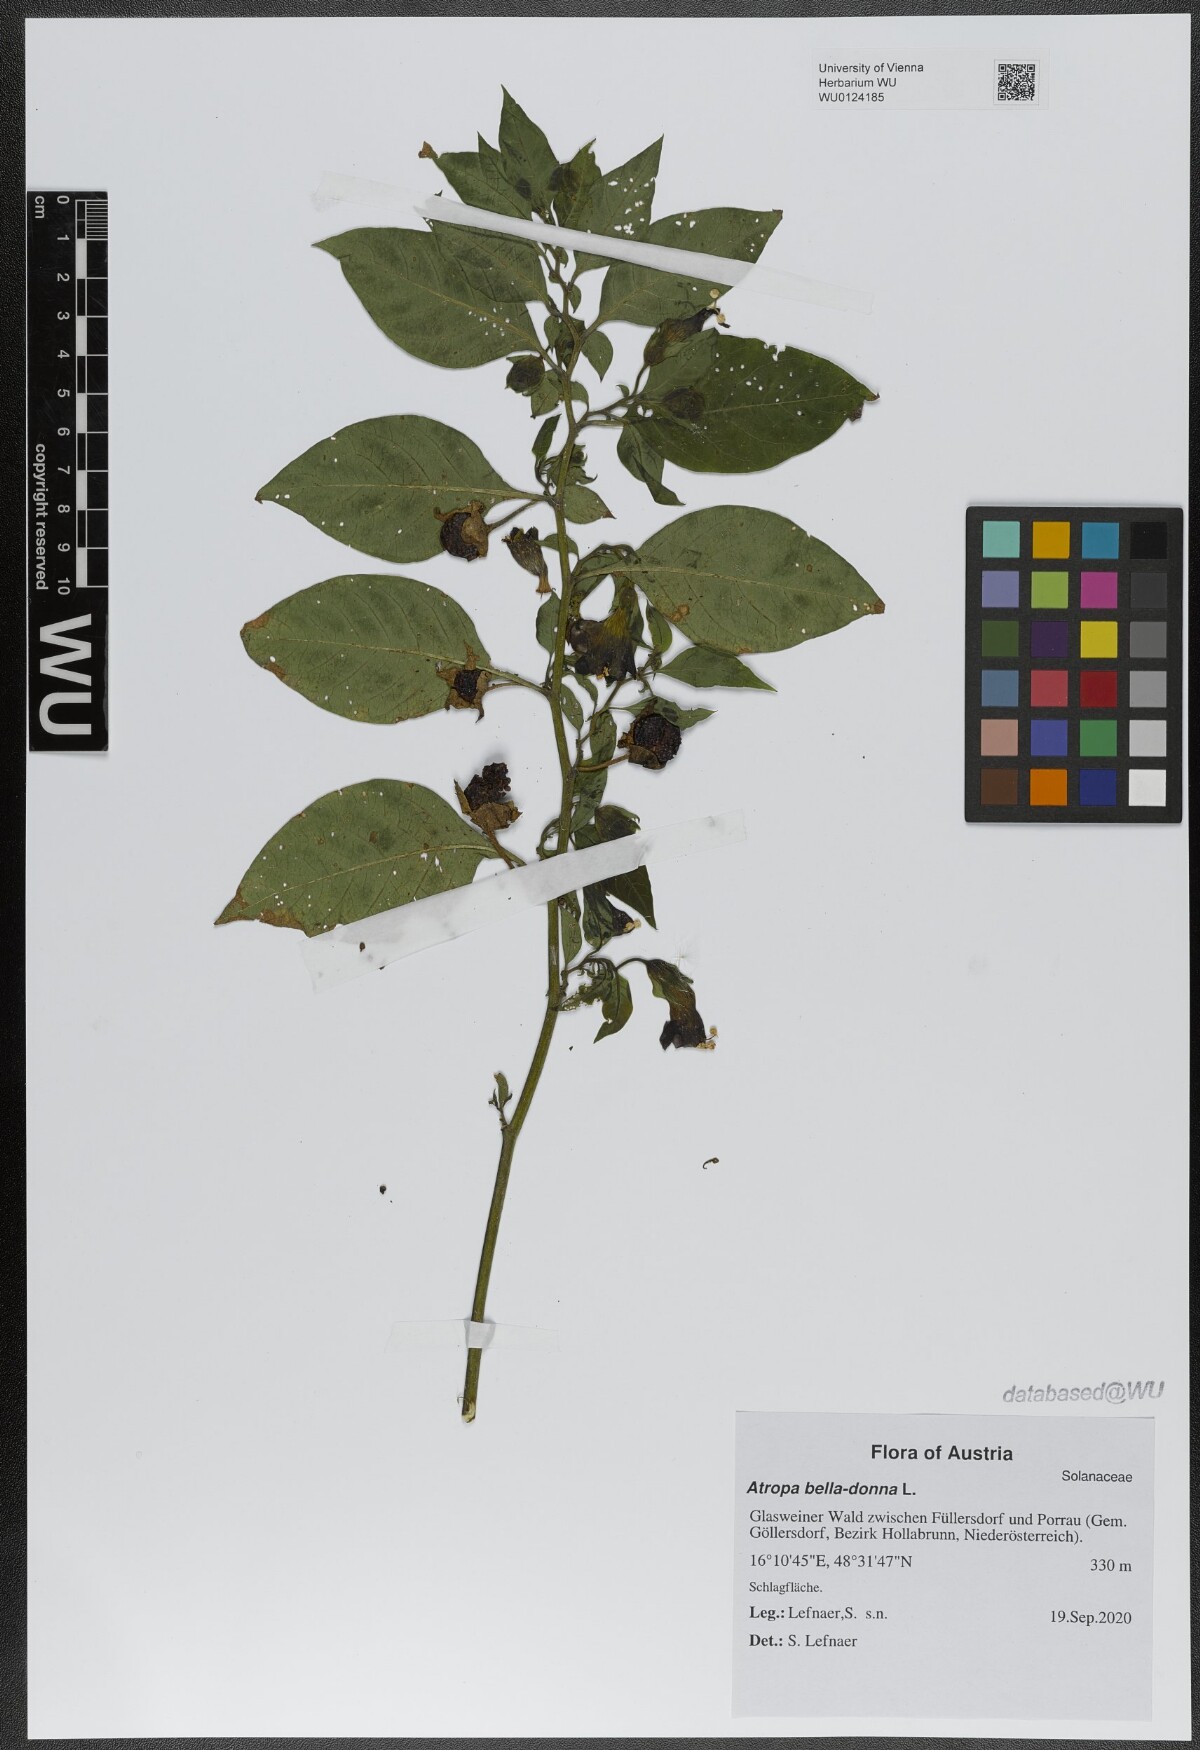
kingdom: Plantae
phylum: Tracheophyta
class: Magnoliopsida
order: Solanales
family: Solanaceae
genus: Atropa
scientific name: Atropa belladonna
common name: Deadly nightshade
